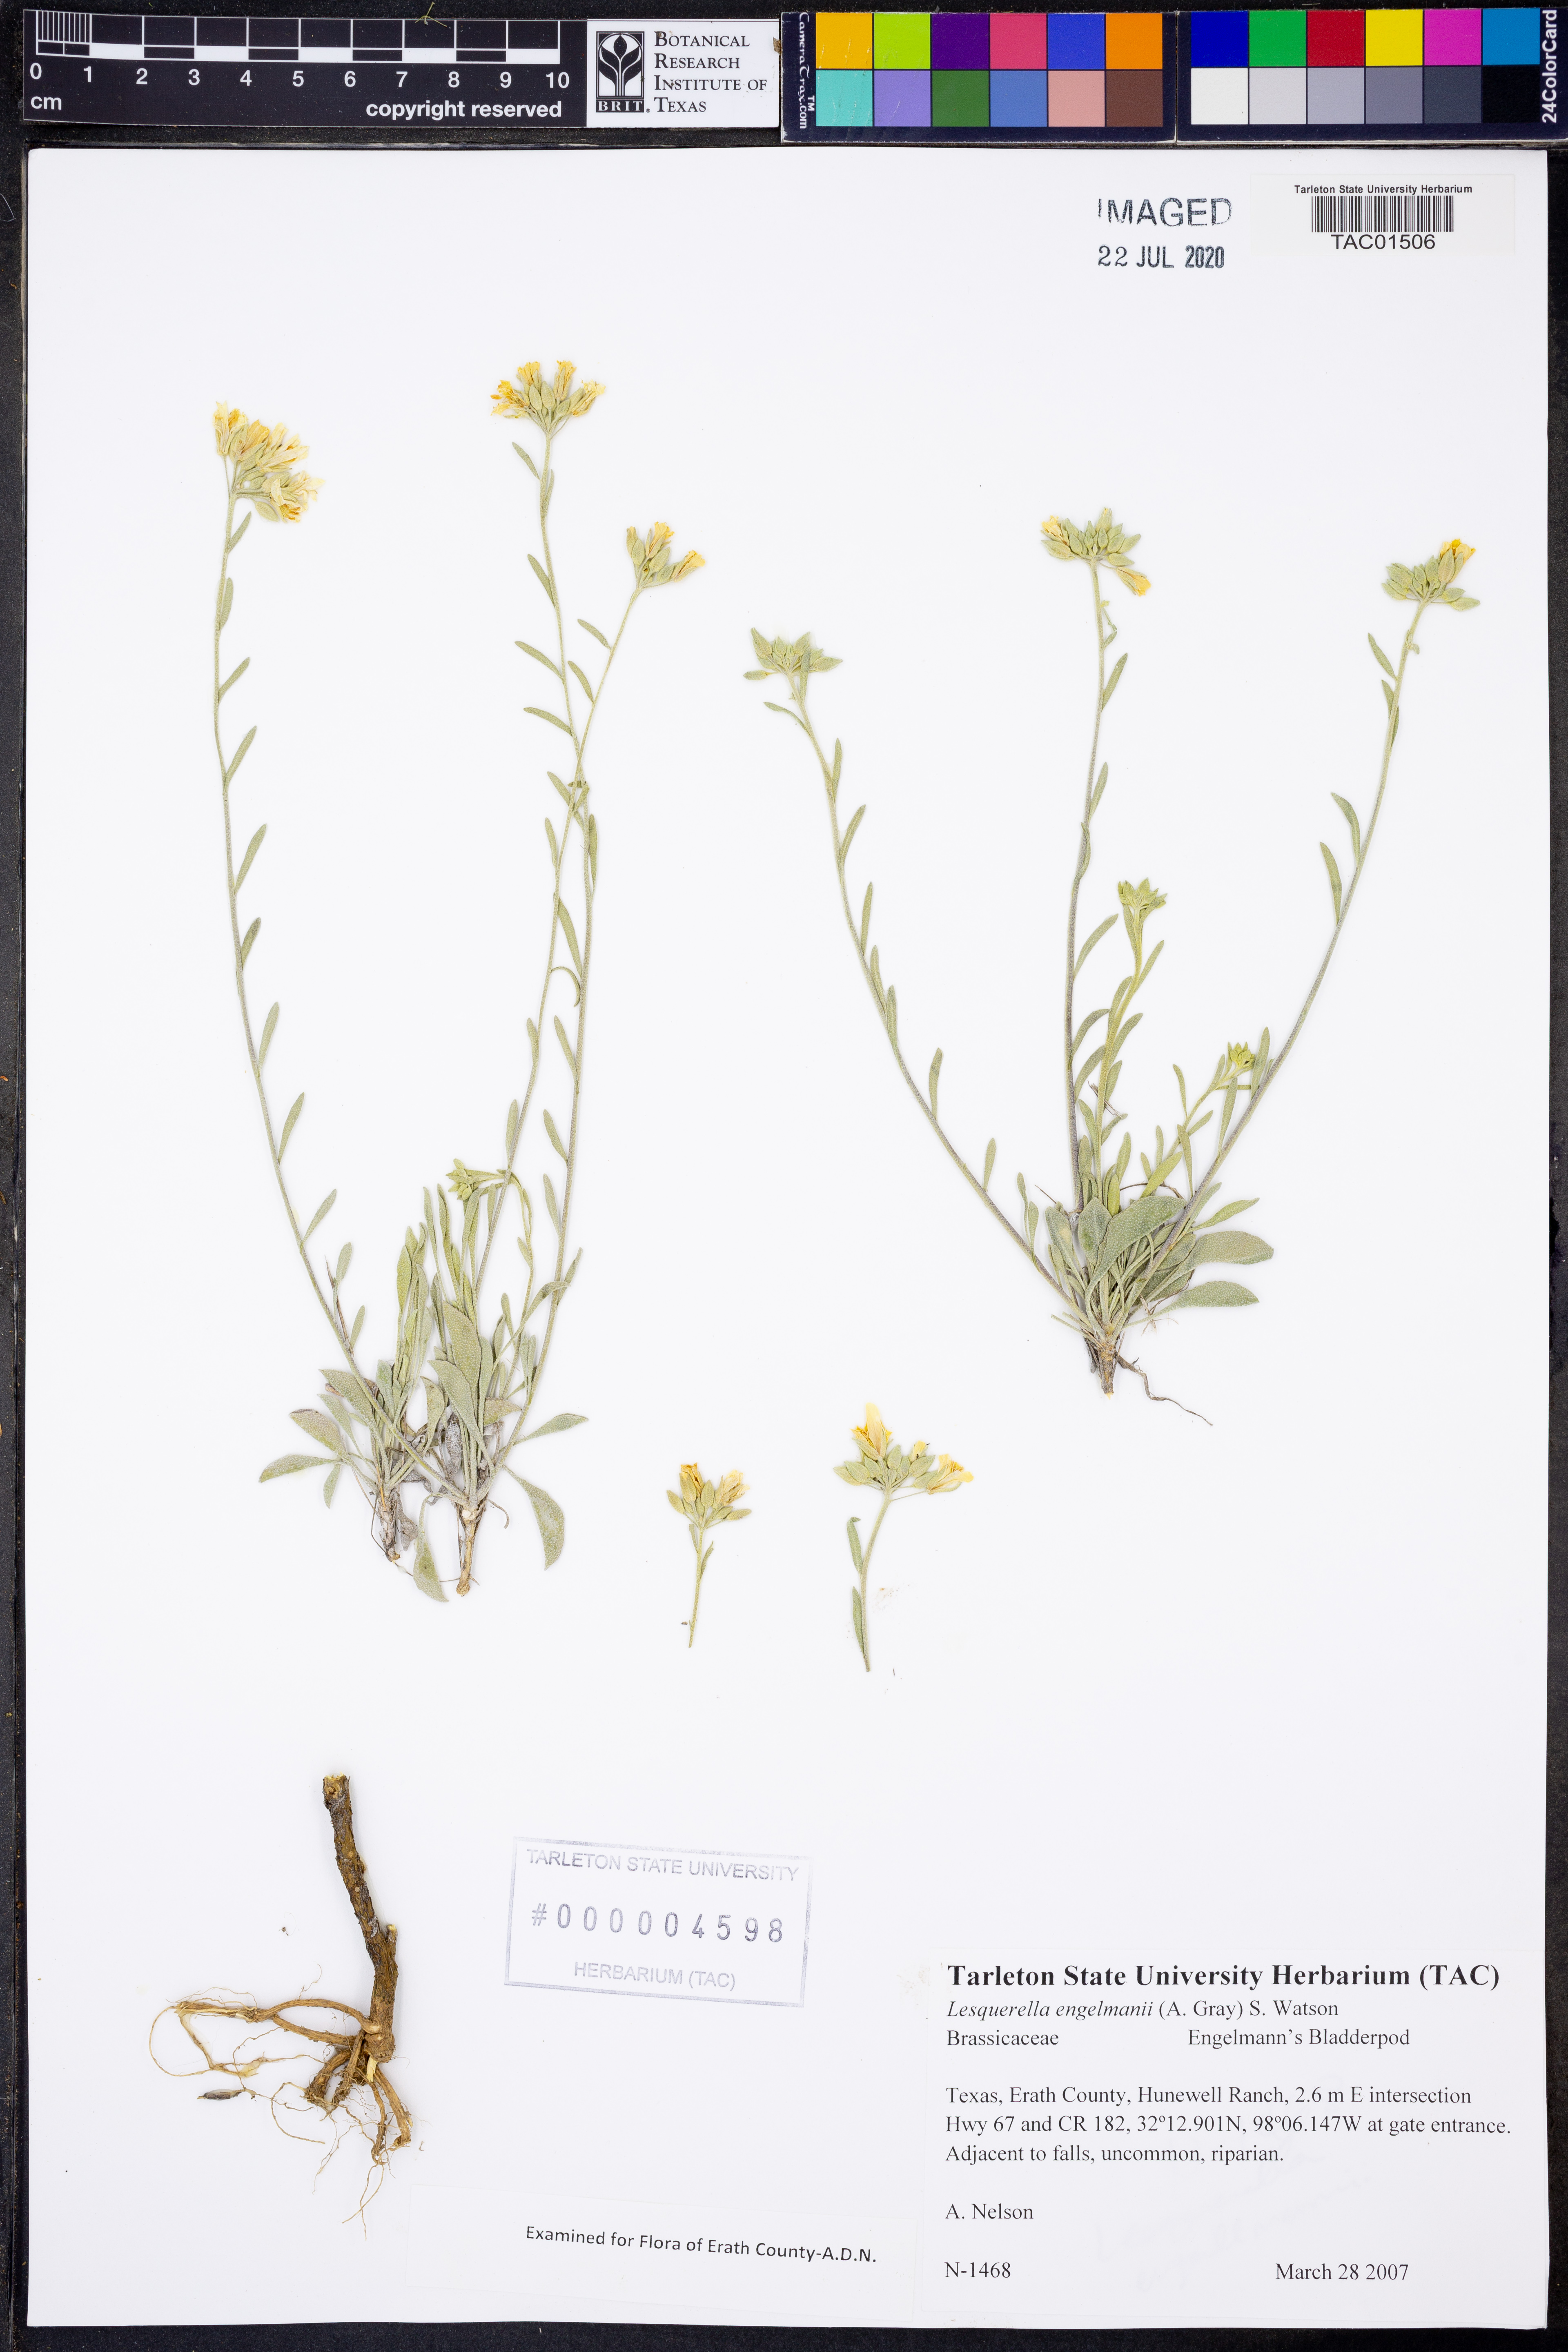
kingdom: Plantae
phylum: Tracheophyta
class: Magnoliopsida
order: Brassicales
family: Brassicaceae
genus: Physaria
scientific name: Physaria engelmannii
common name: Engelmann's bladderpod
